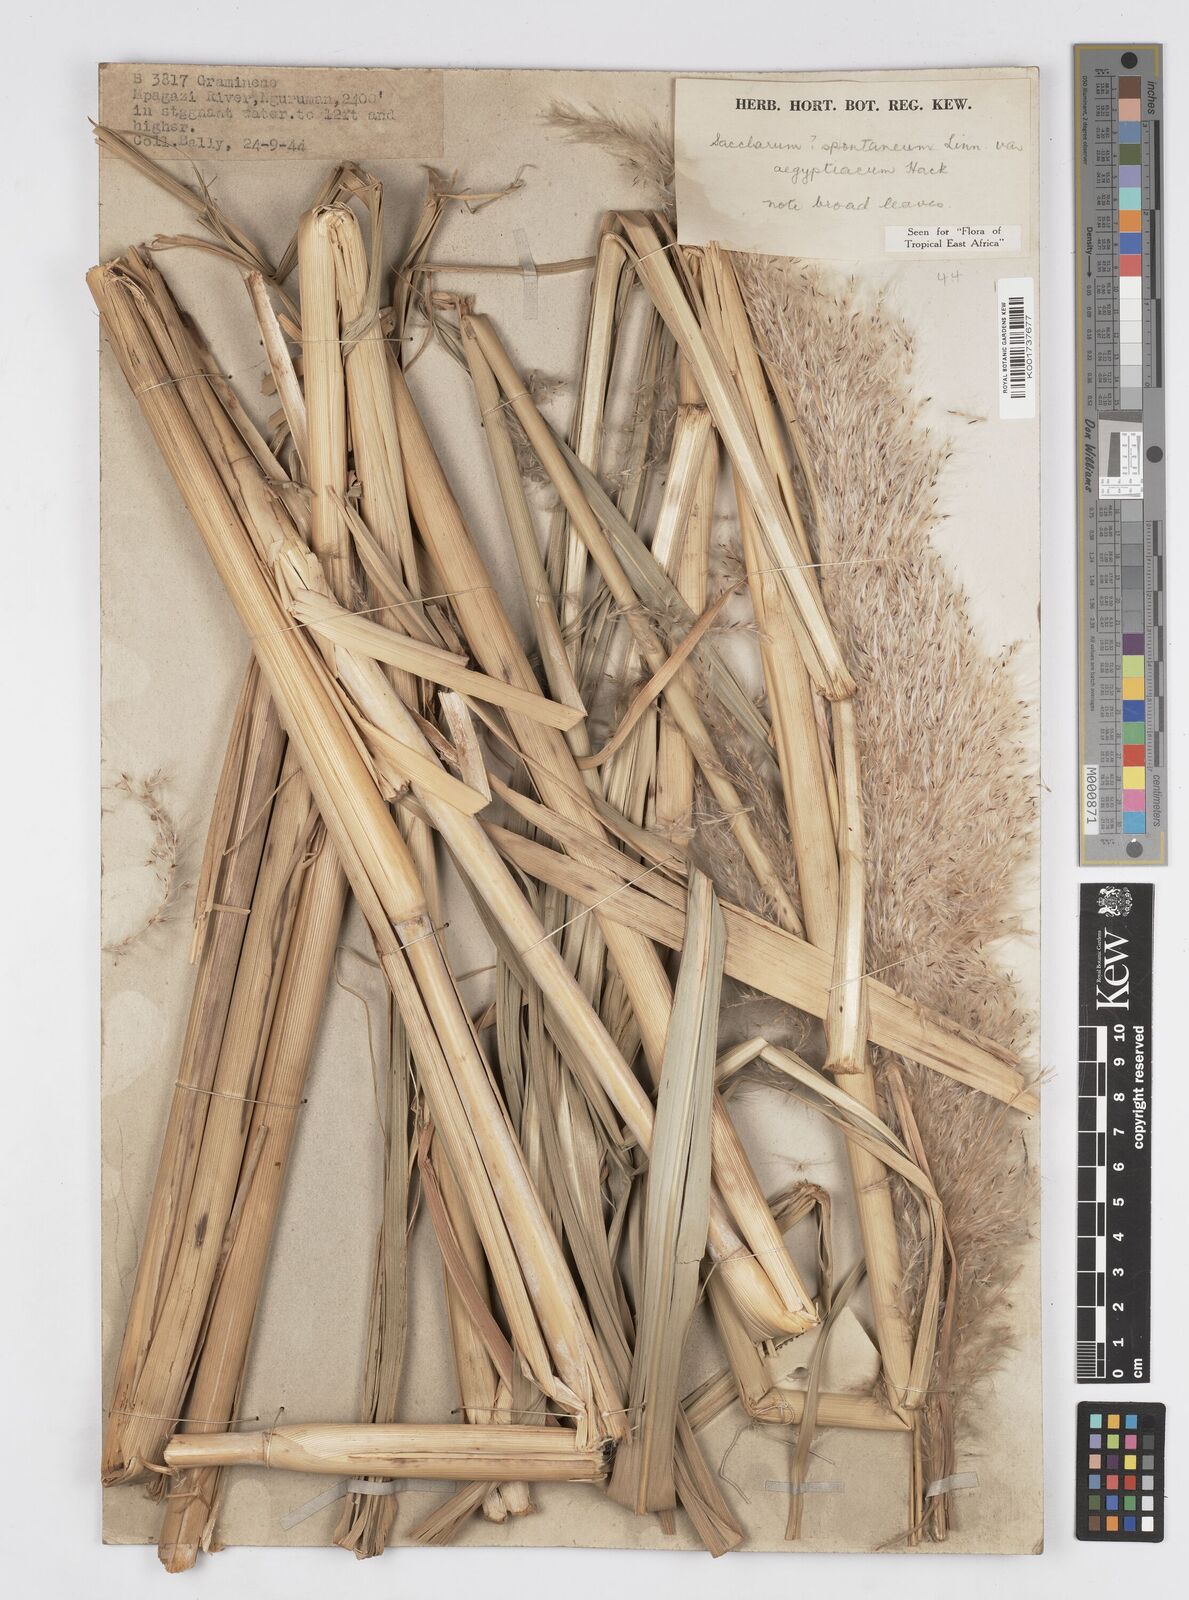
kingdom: Plantae
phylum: Tracheophyta
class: Liliopsida
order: Poales
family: Poaceae
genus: Saccharum
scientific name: Saccharum spontaneum
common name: Wild sugarcane
